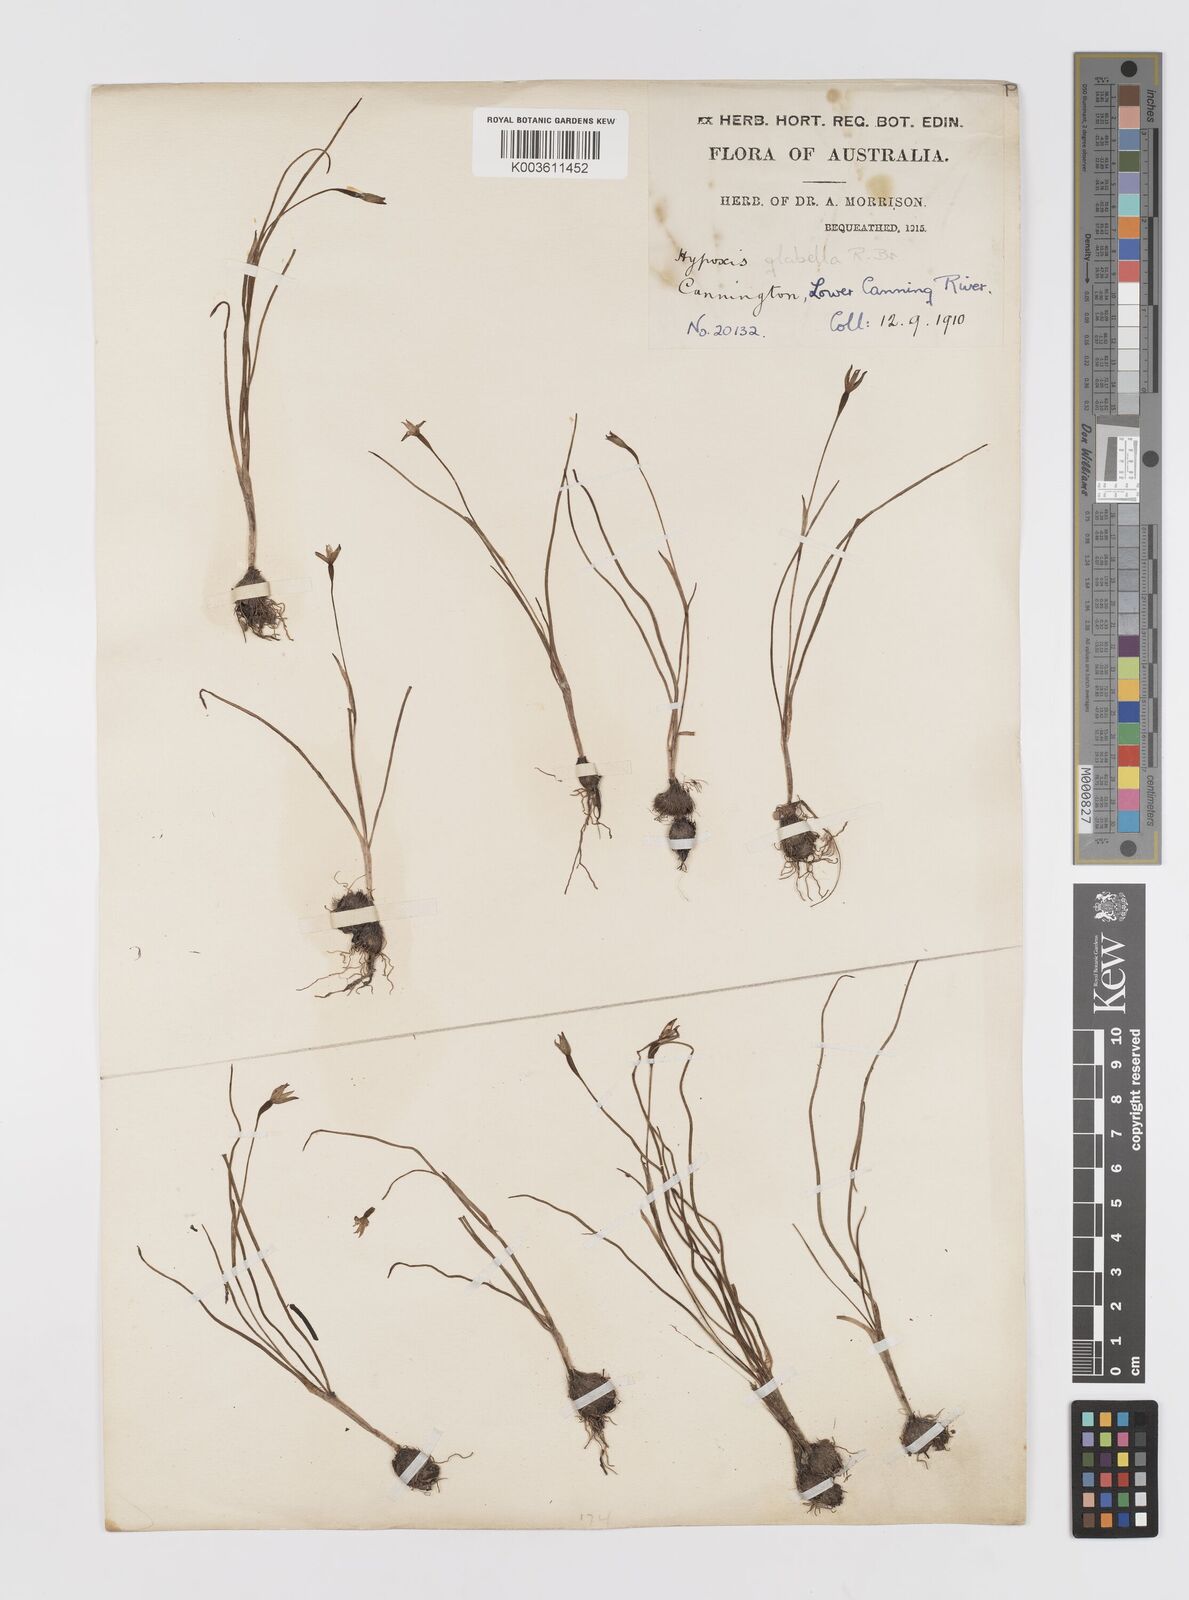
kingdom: Plantae
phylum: Tracheophyta
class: Liliopsida
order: Asparagales
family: Hypoxidaceae
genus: Pauridia
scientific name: Pauridia glabella
